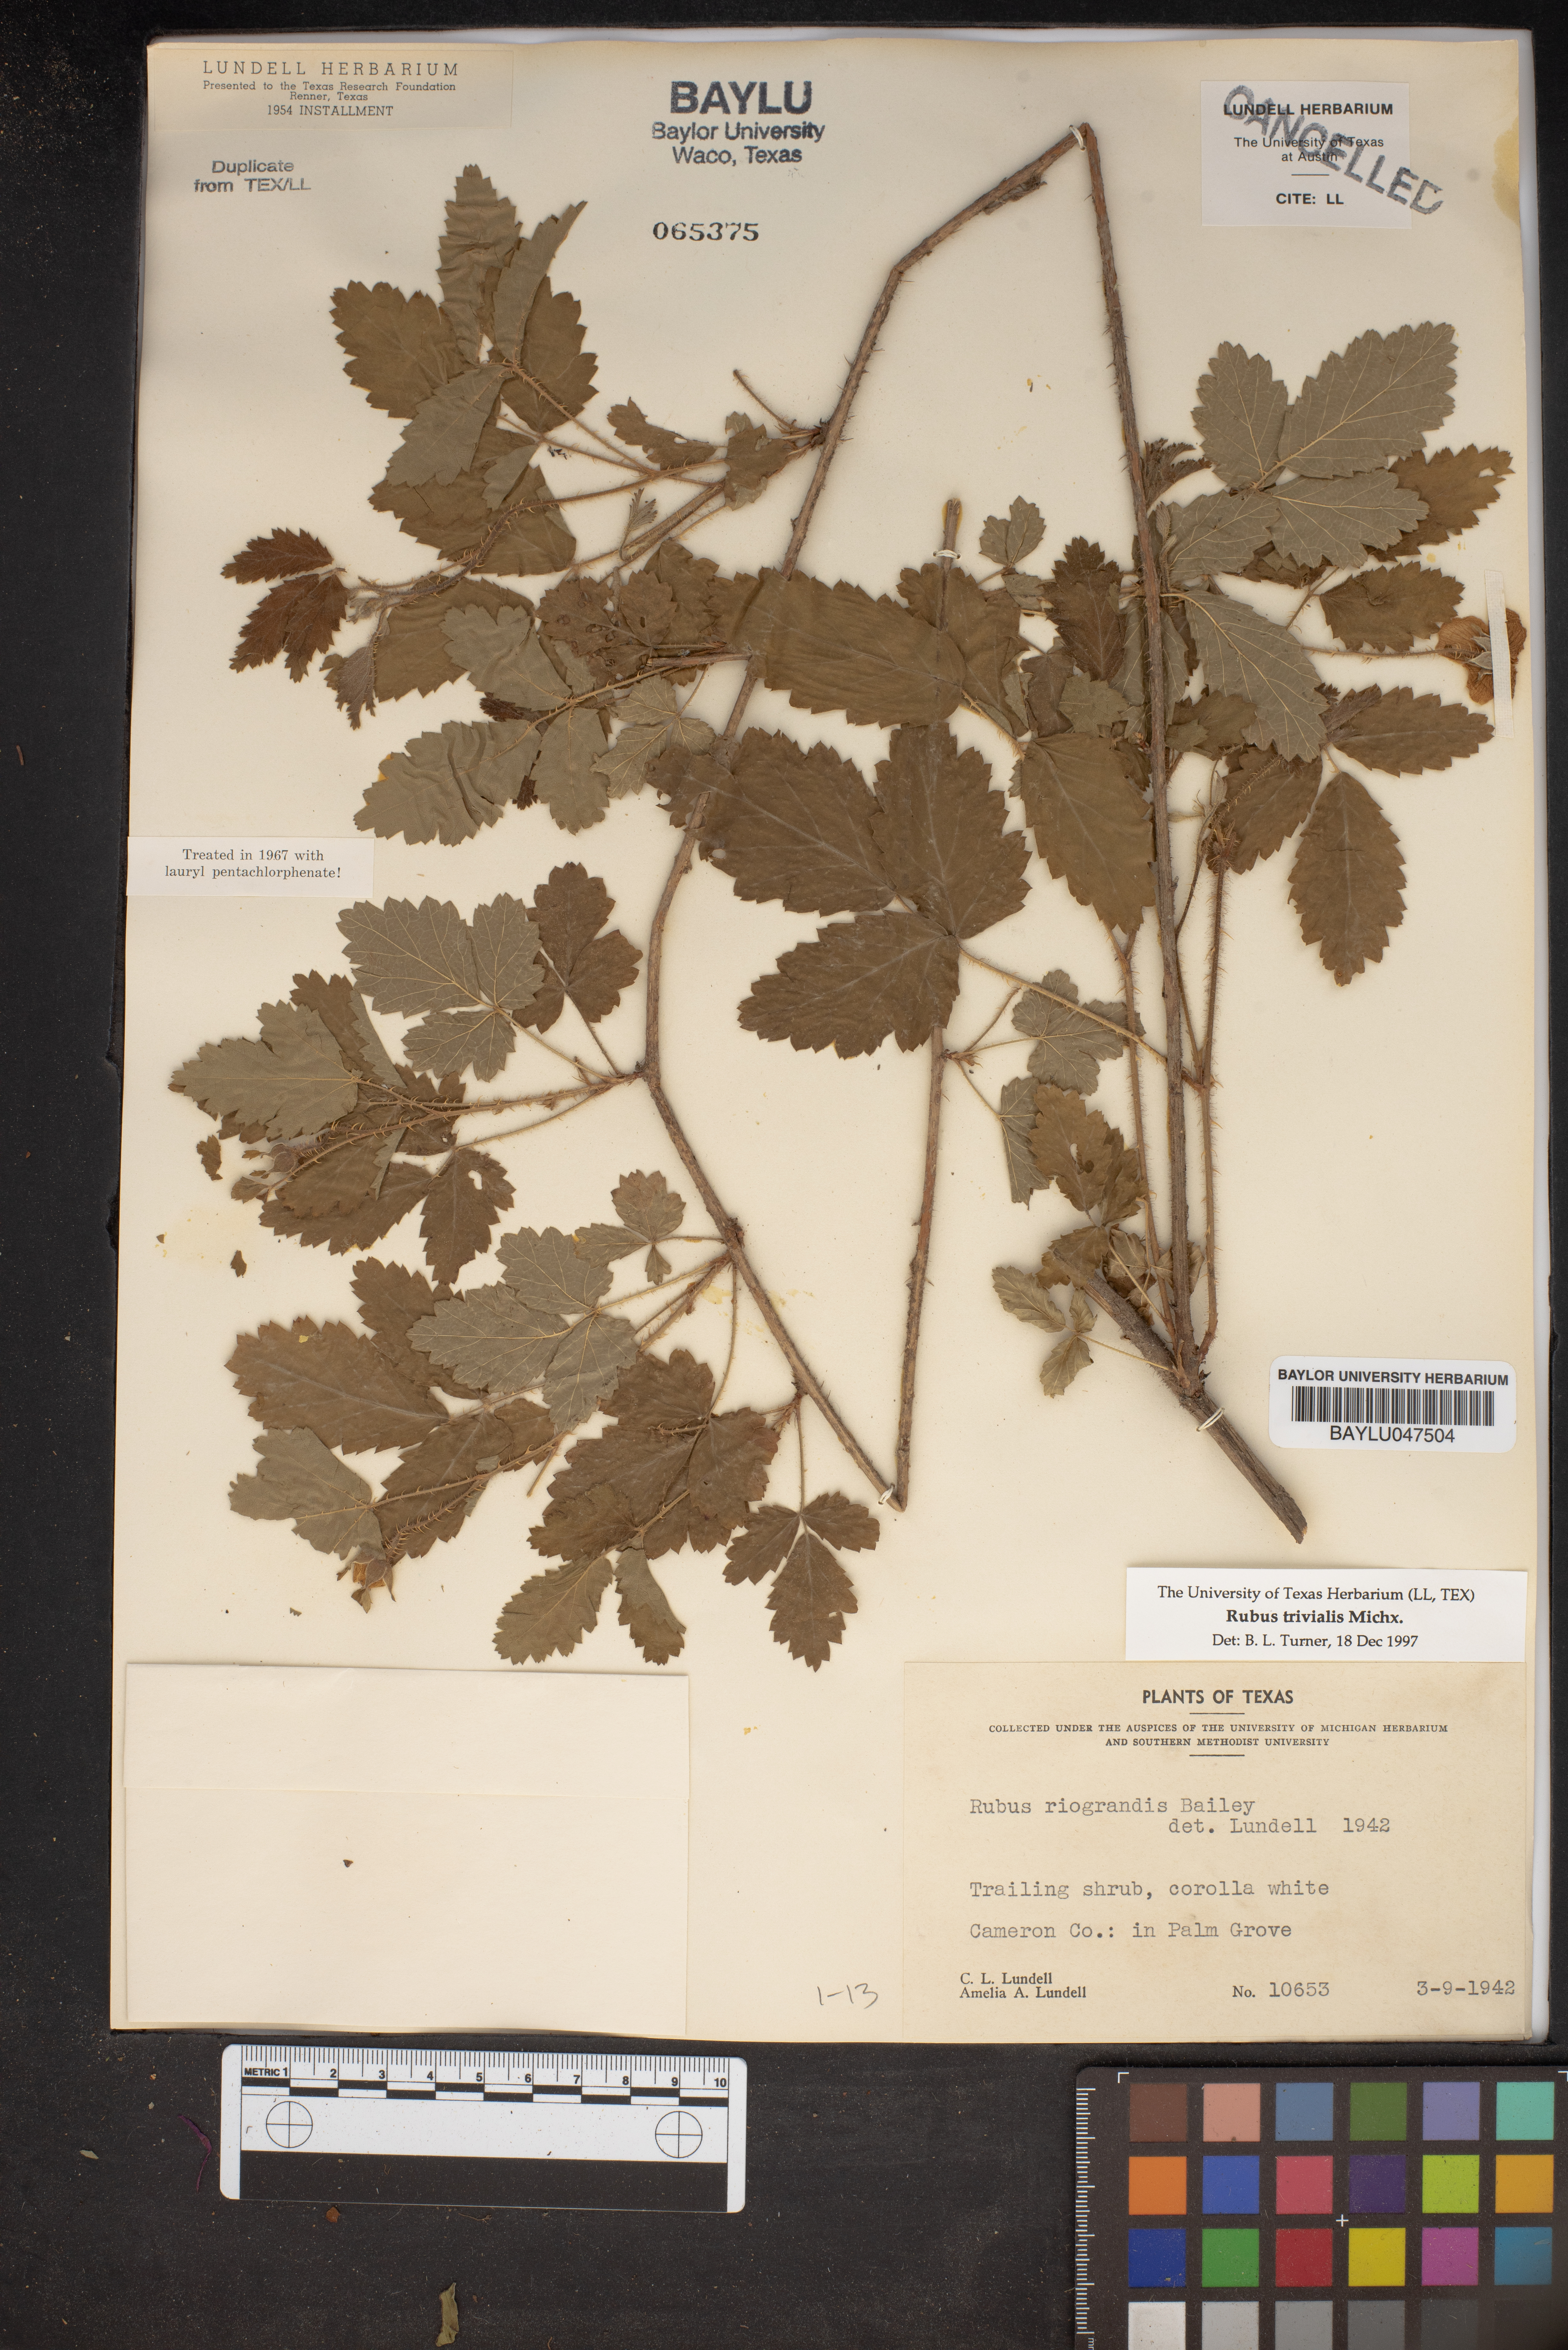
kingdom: Plantae
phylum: Tracheophyta
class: Magnoliopsida
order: Rosales
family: Rosaceae
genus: Rubus
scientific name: Rubus trivialis
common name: Southern dewberry
